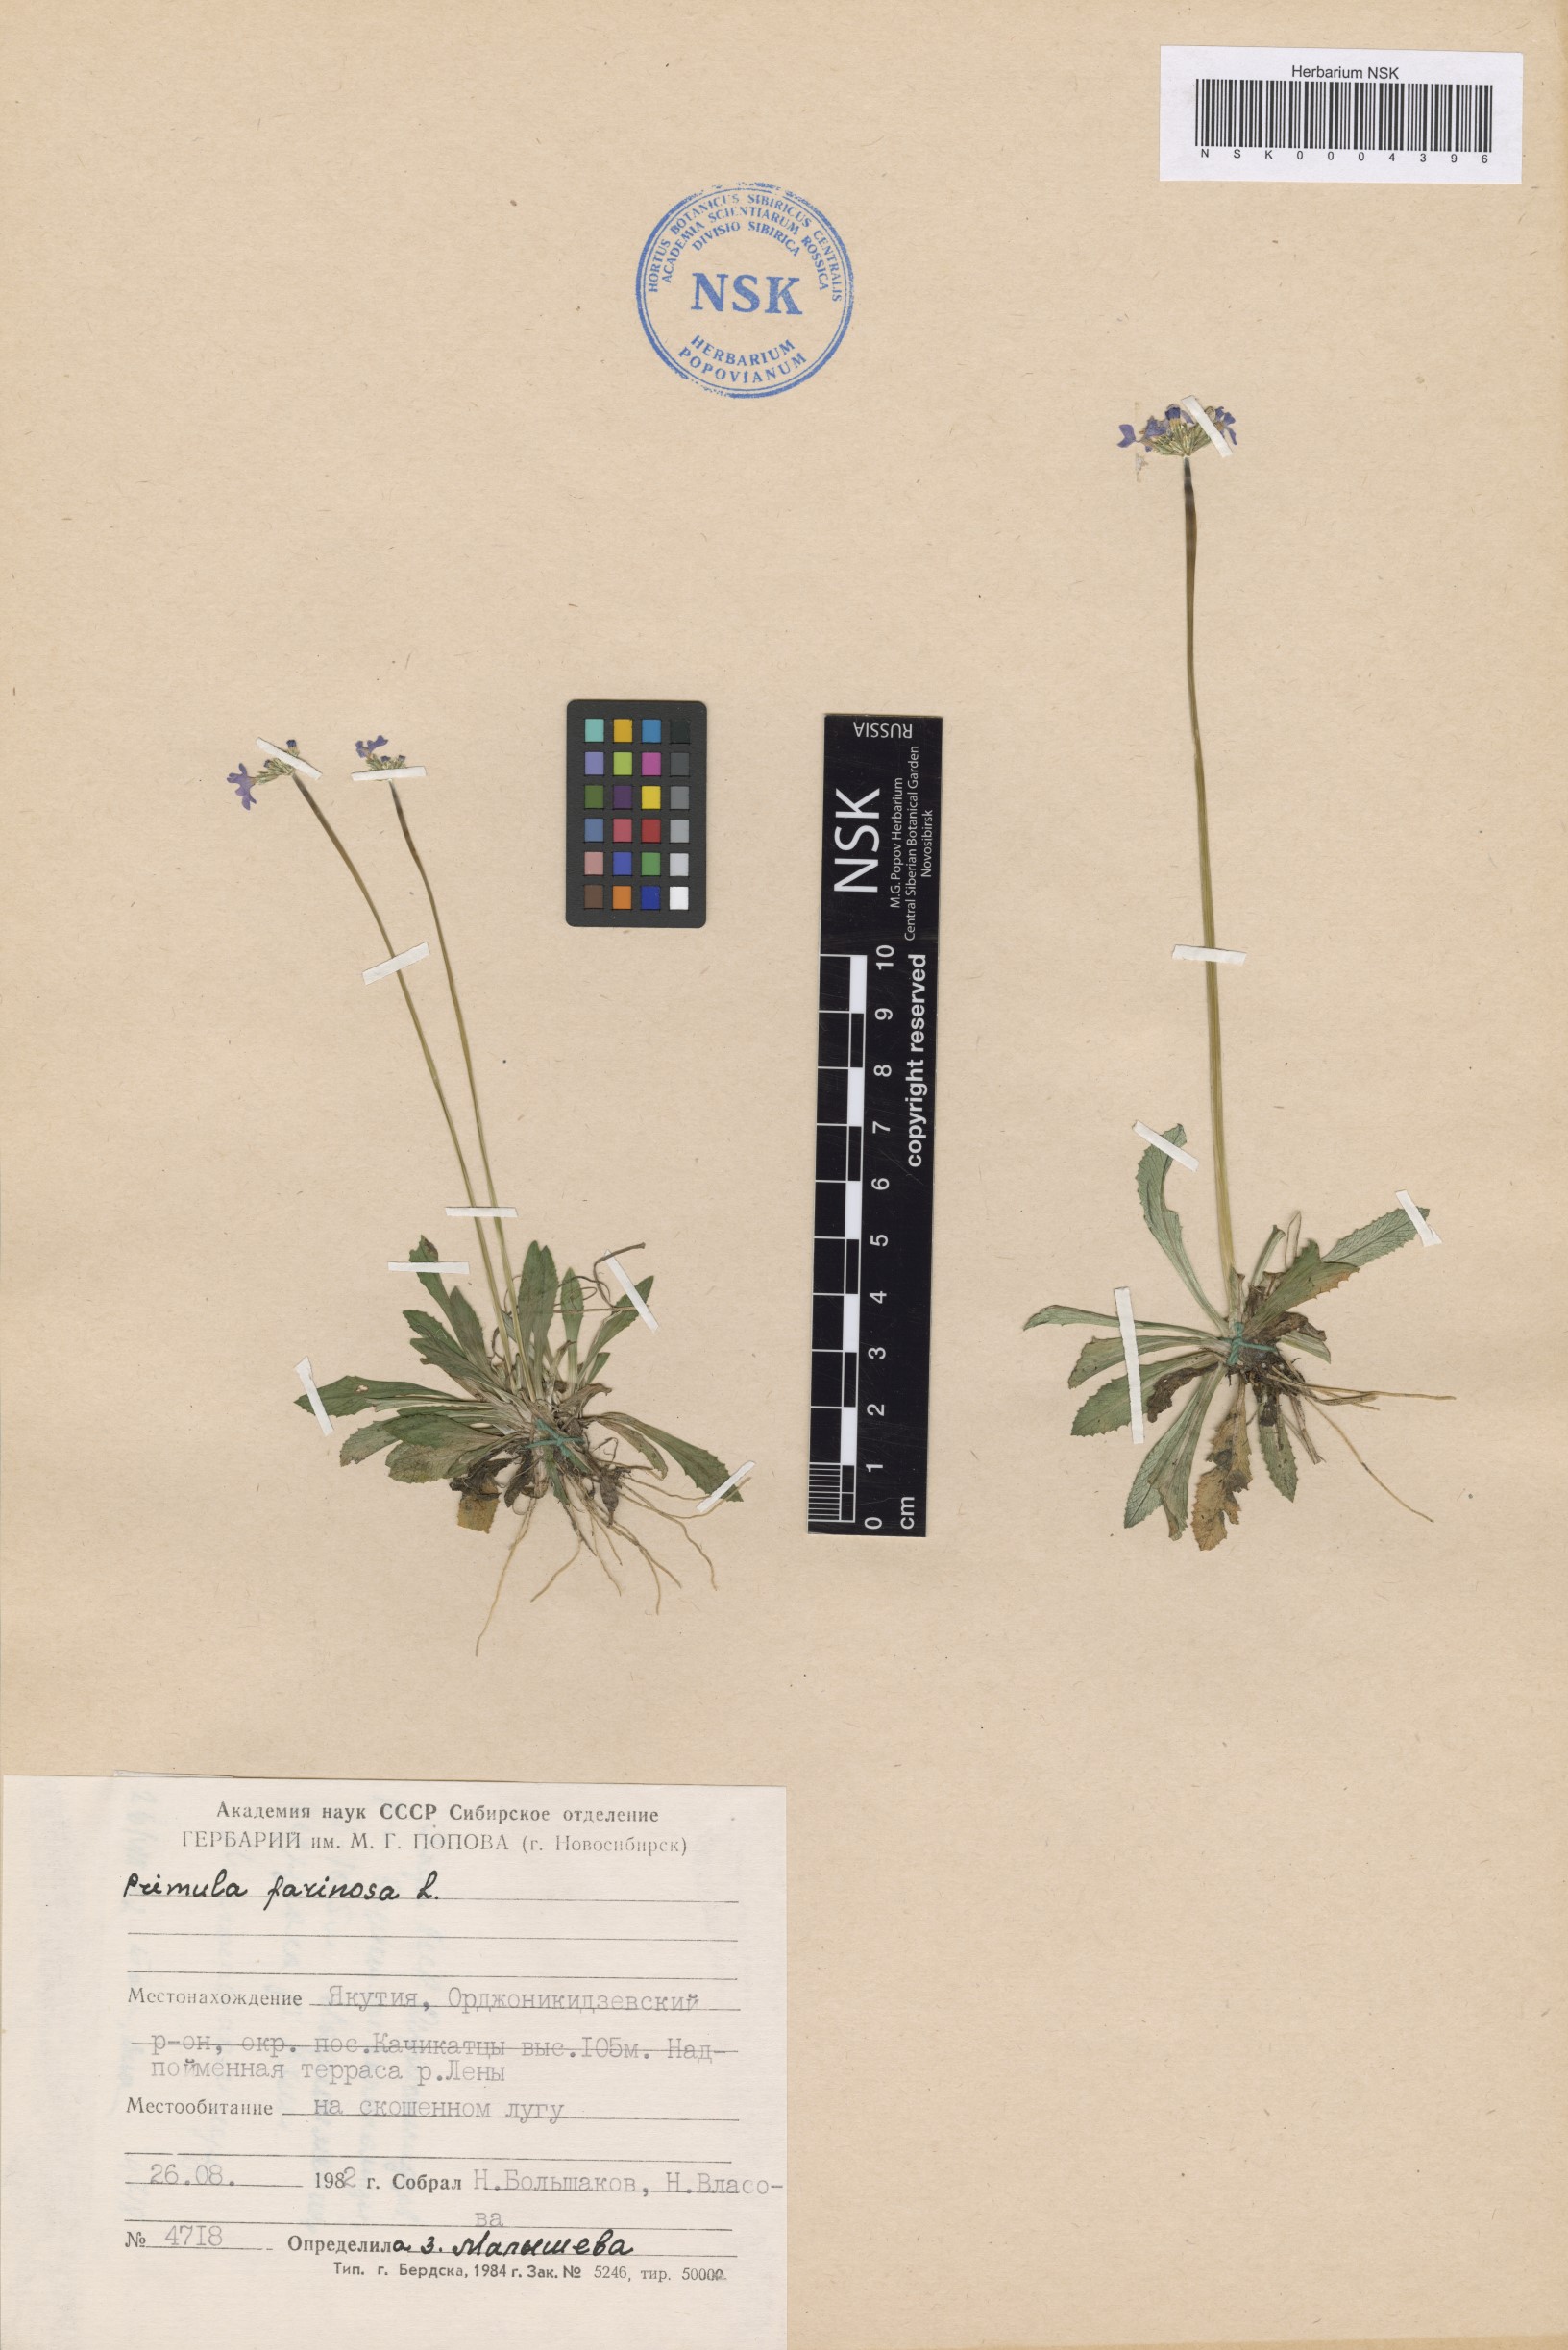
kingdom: Plantae
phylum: Tracheophyta
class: Magnoliopsida
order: Ericales
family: Primulaceae
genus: Primula
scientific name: Primula farinosa
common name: Bird's-eye primrose
